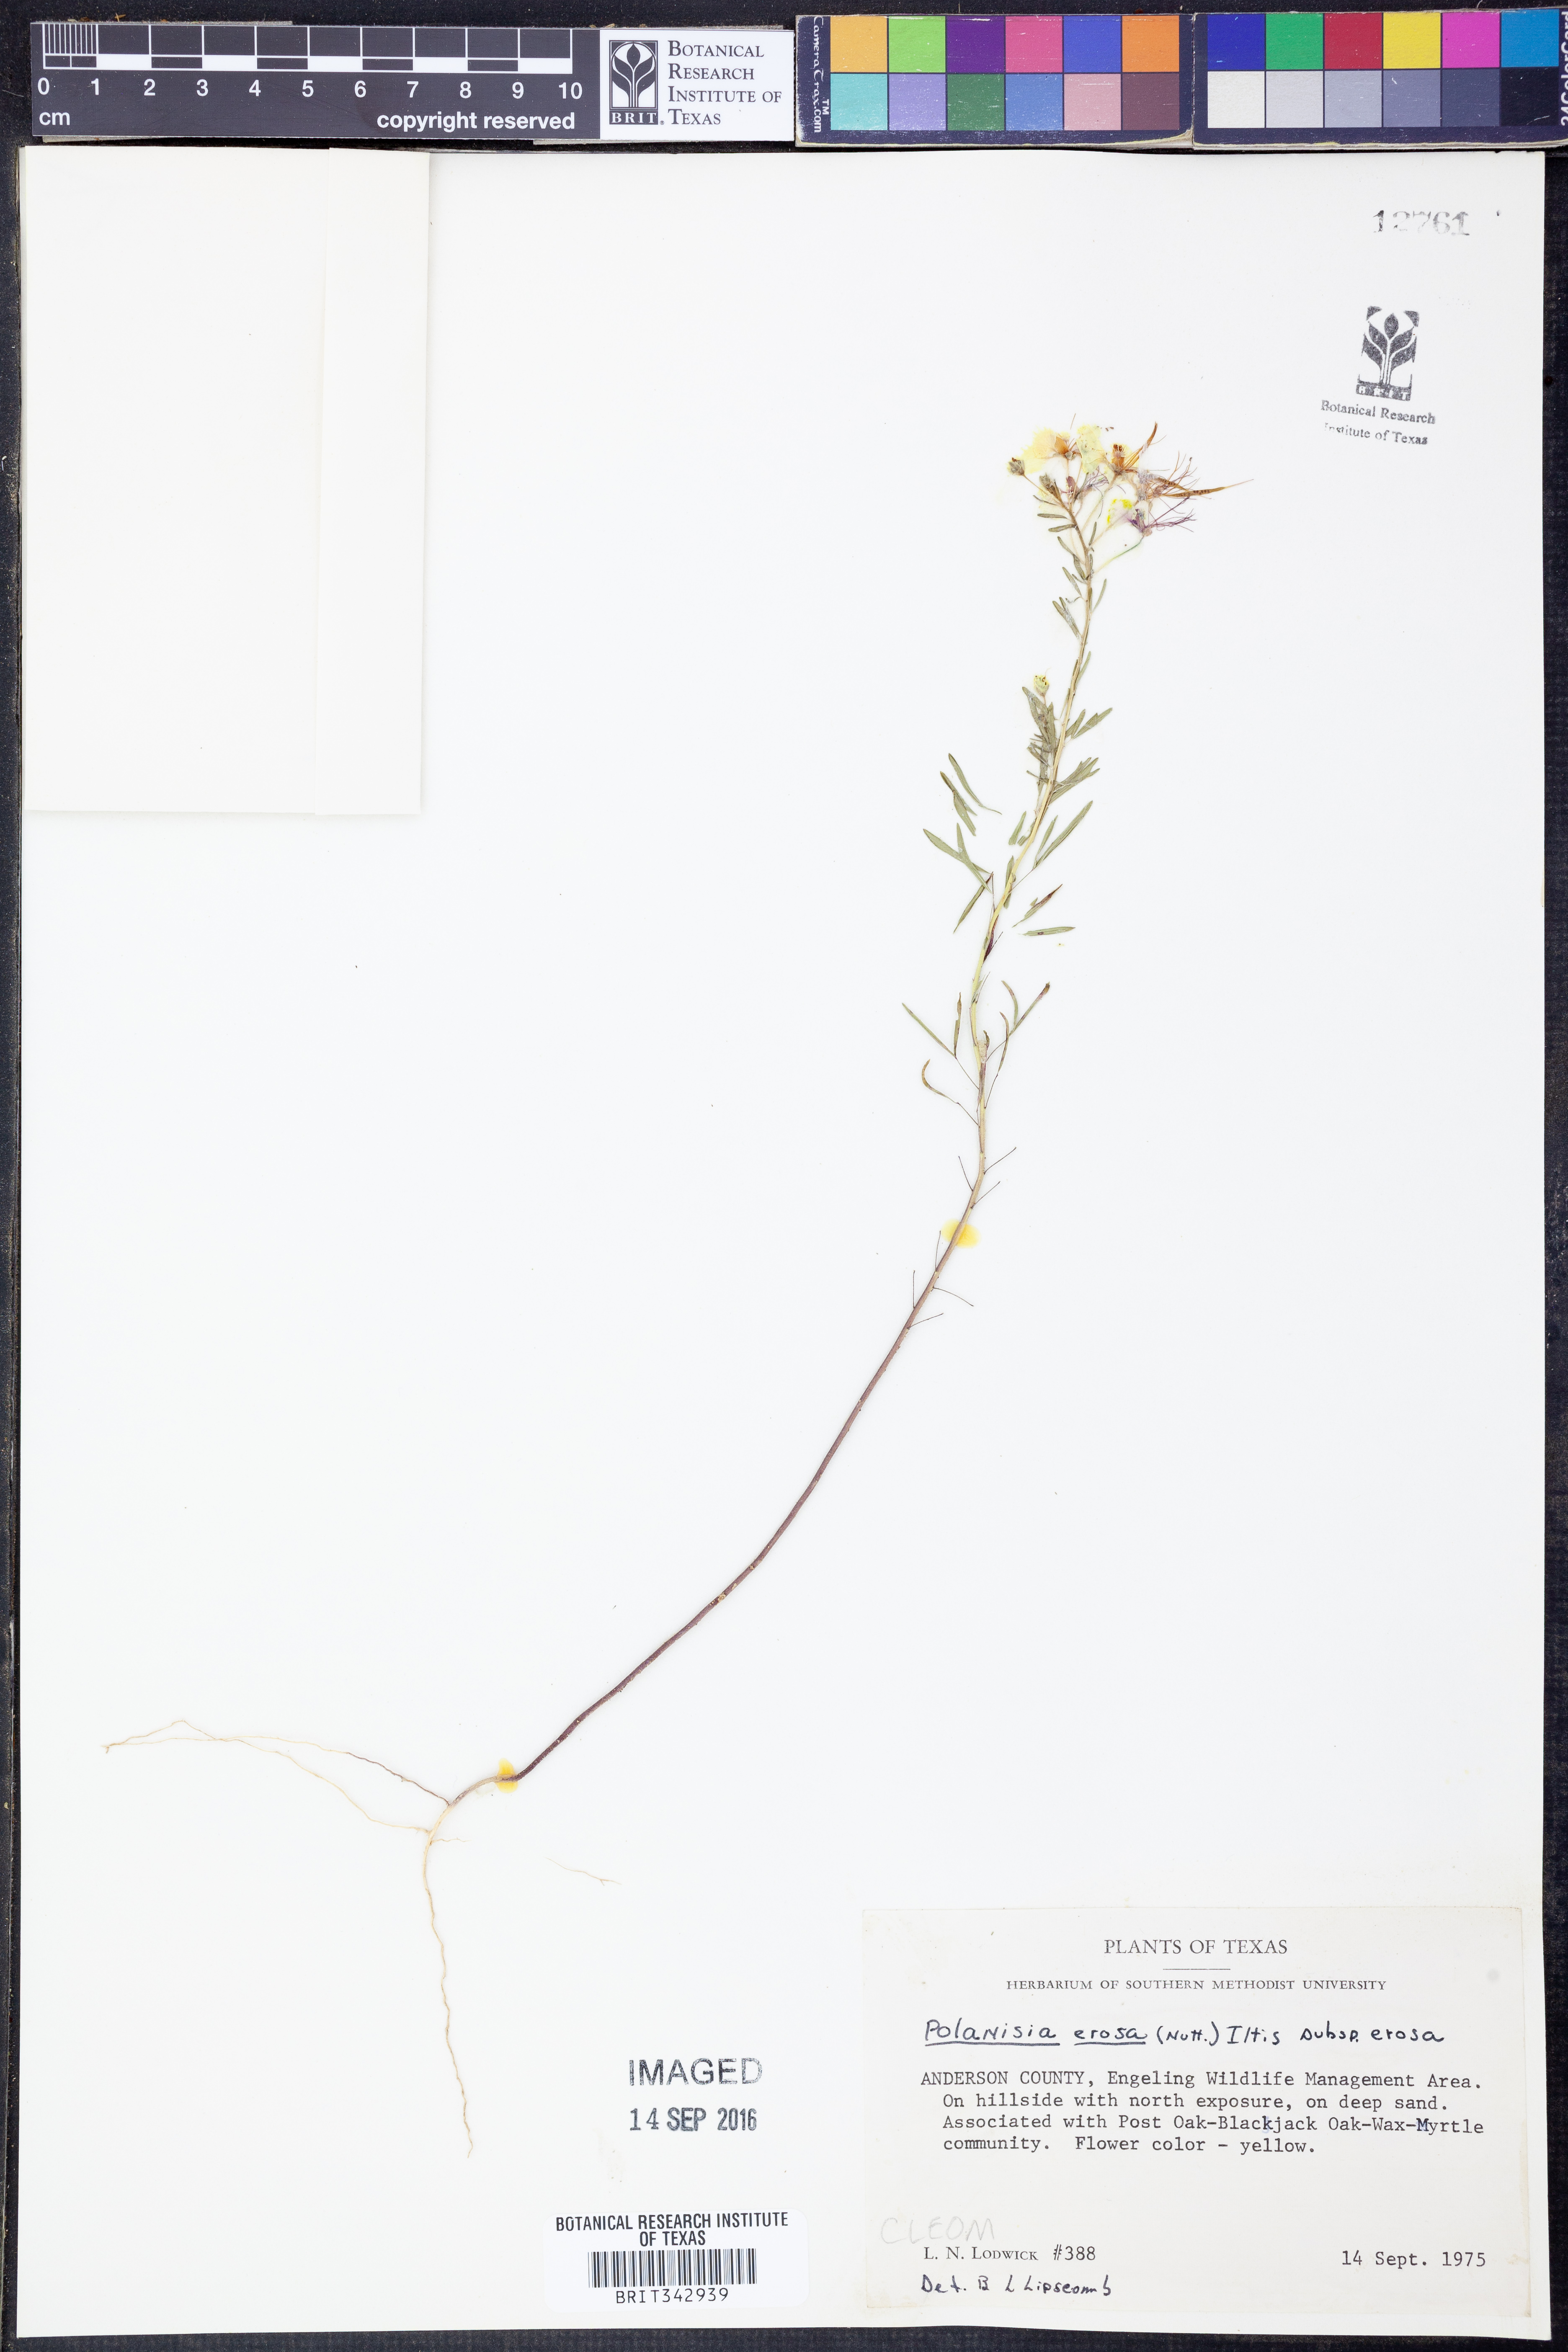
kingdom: Plantae
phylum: Tracheophyta
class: Magnoliopsida
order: Brassicales
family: Cleomaceae
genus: Polanisia
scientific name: Polanisia erosa
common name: Large clammyweed
